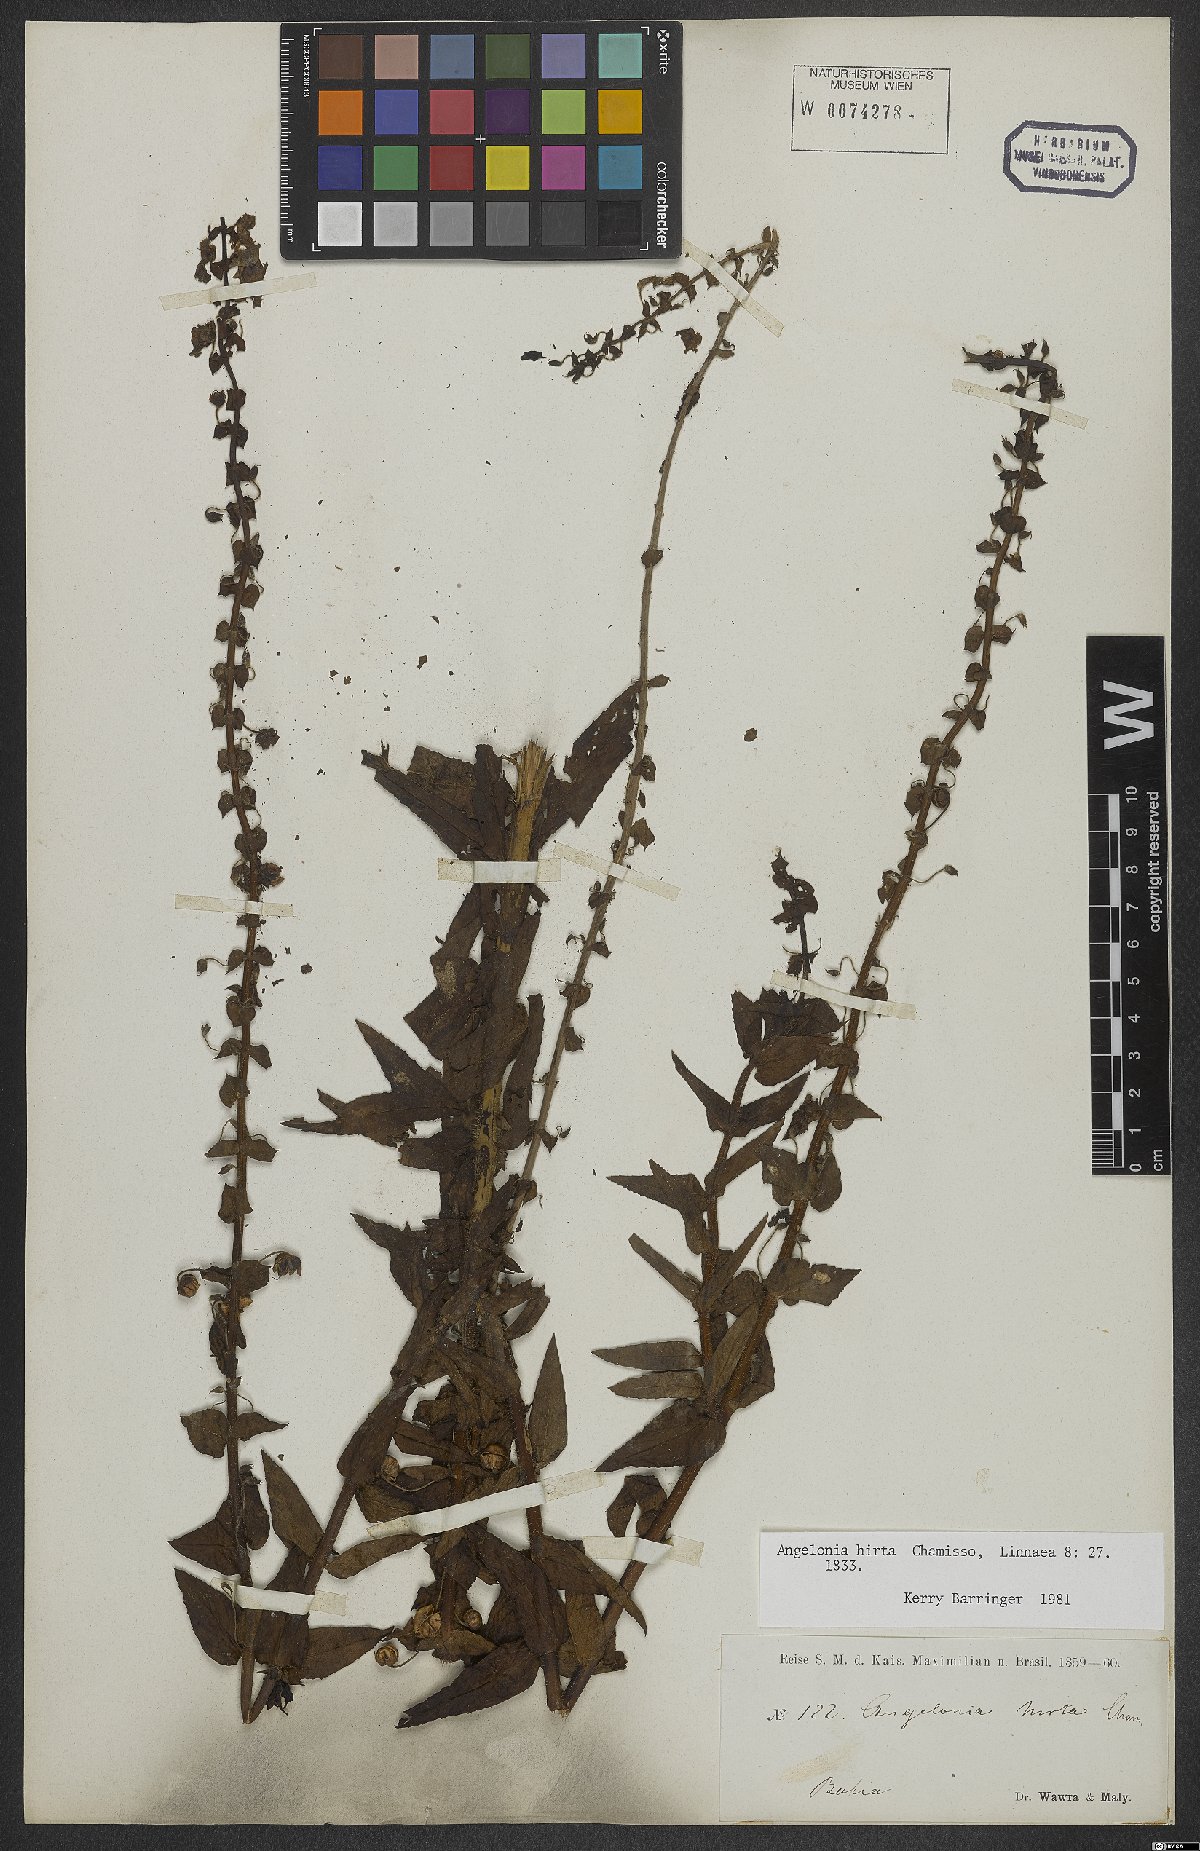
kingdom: Plantae
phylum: Tracheophyta
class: Magnoliopsida
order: Lamiales
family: Plantaginaceae
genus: Angelonia
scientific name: Angelonia salicariifolia
